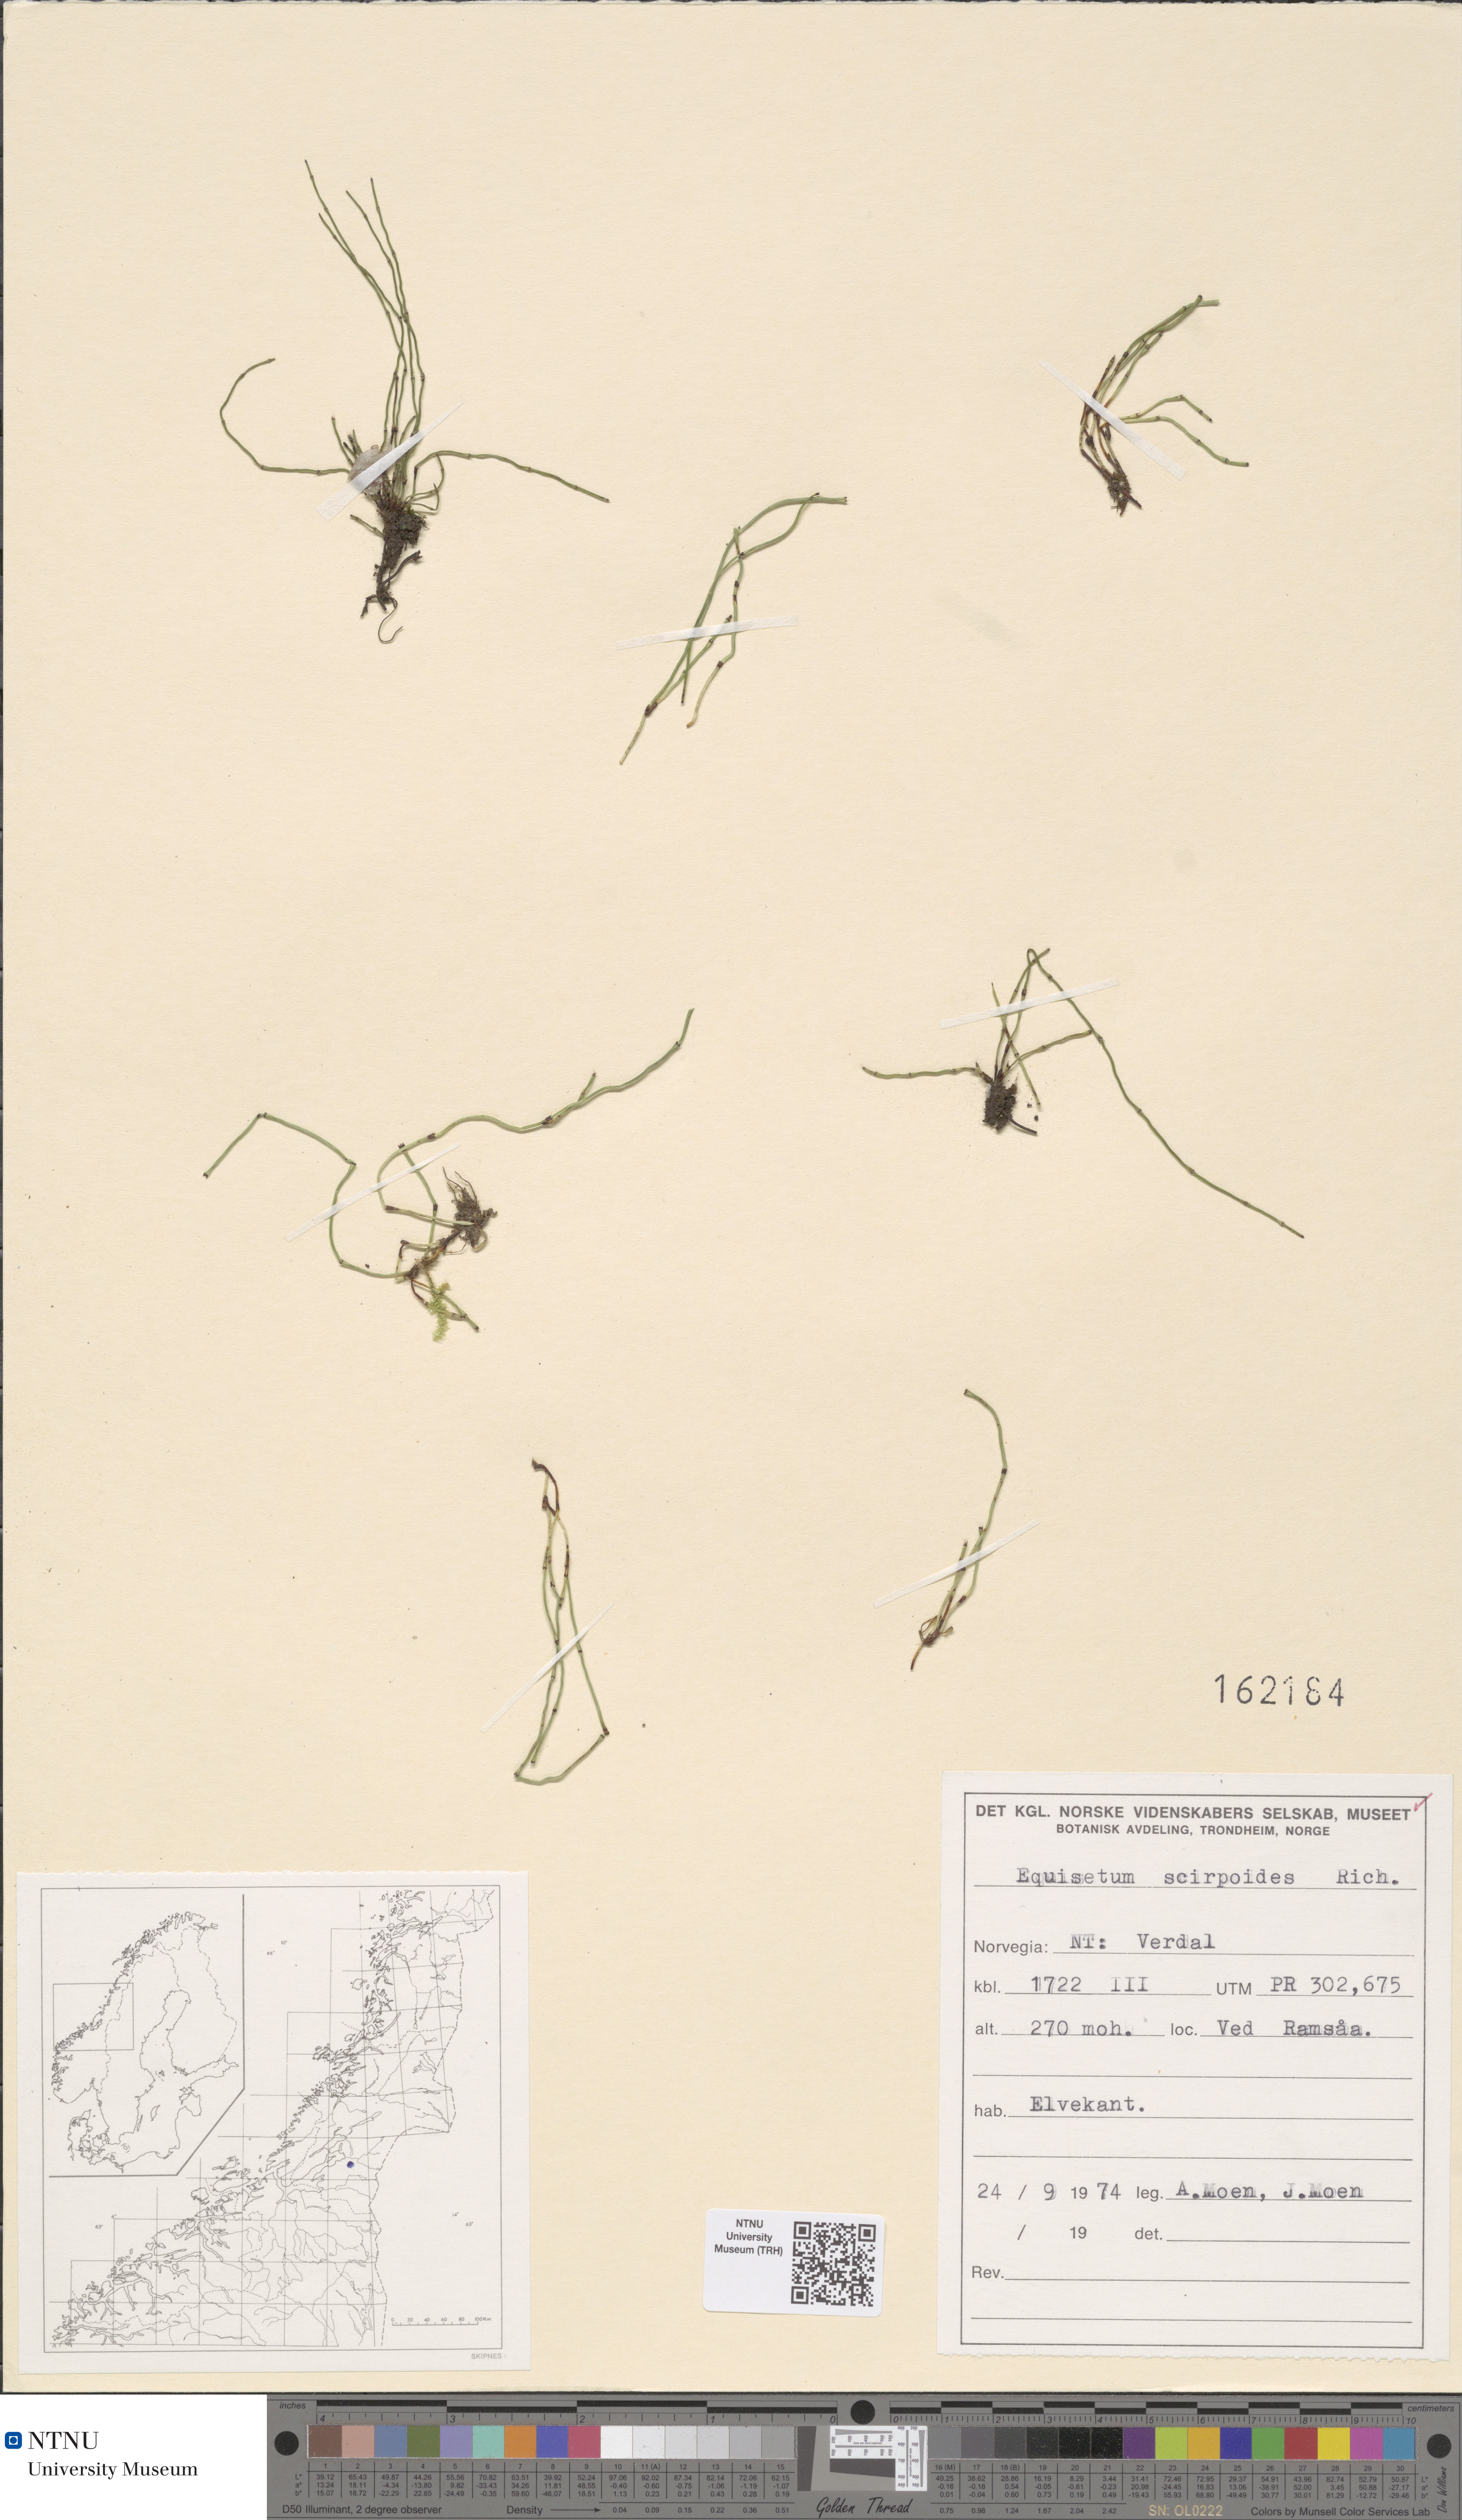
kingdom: Plantae
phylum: Tracheophyta
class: Polypodiopsida
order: Equisetales
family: Equisetaceae
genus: Equisetum
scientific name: Equisetum scirpoides
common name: Delicate horsetail
